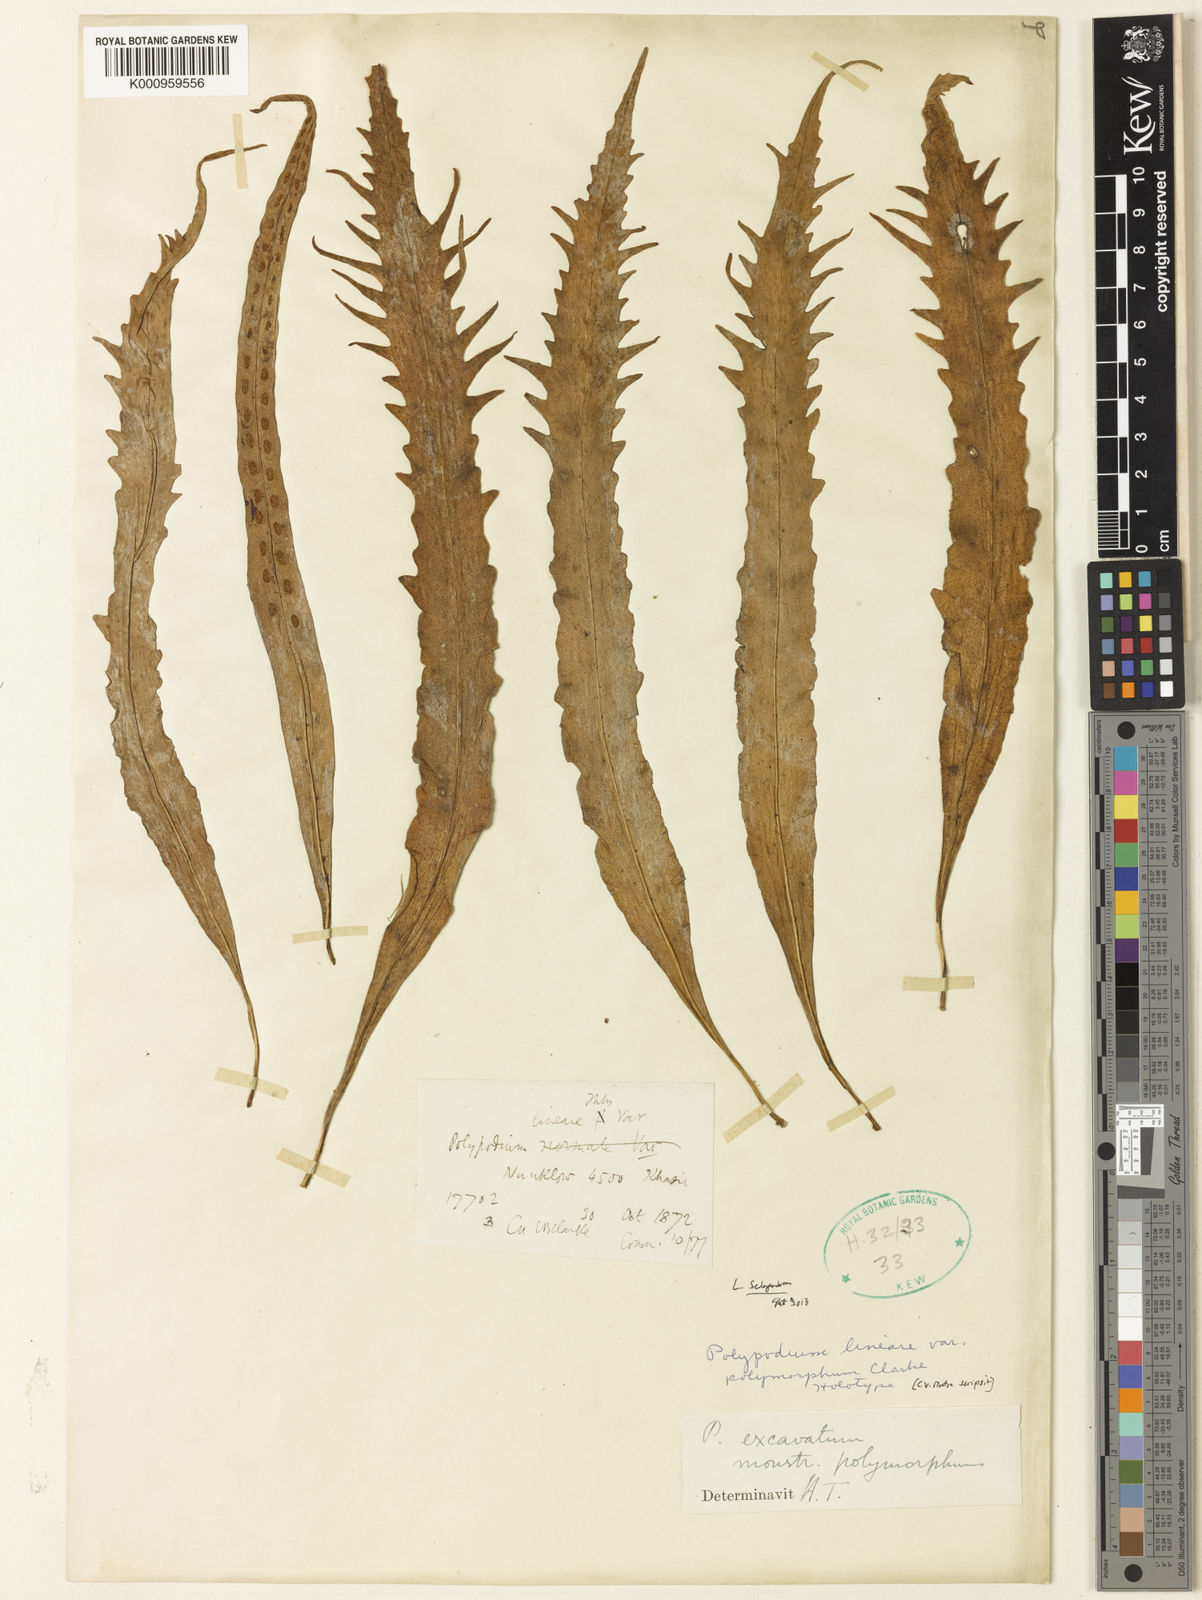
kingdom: Plantae
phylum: Tracheophyta
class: Polypodiopsida
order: Polypodiales
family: Polypodiaceae
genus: Lepisorus
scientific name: Lepisorus excavatus
